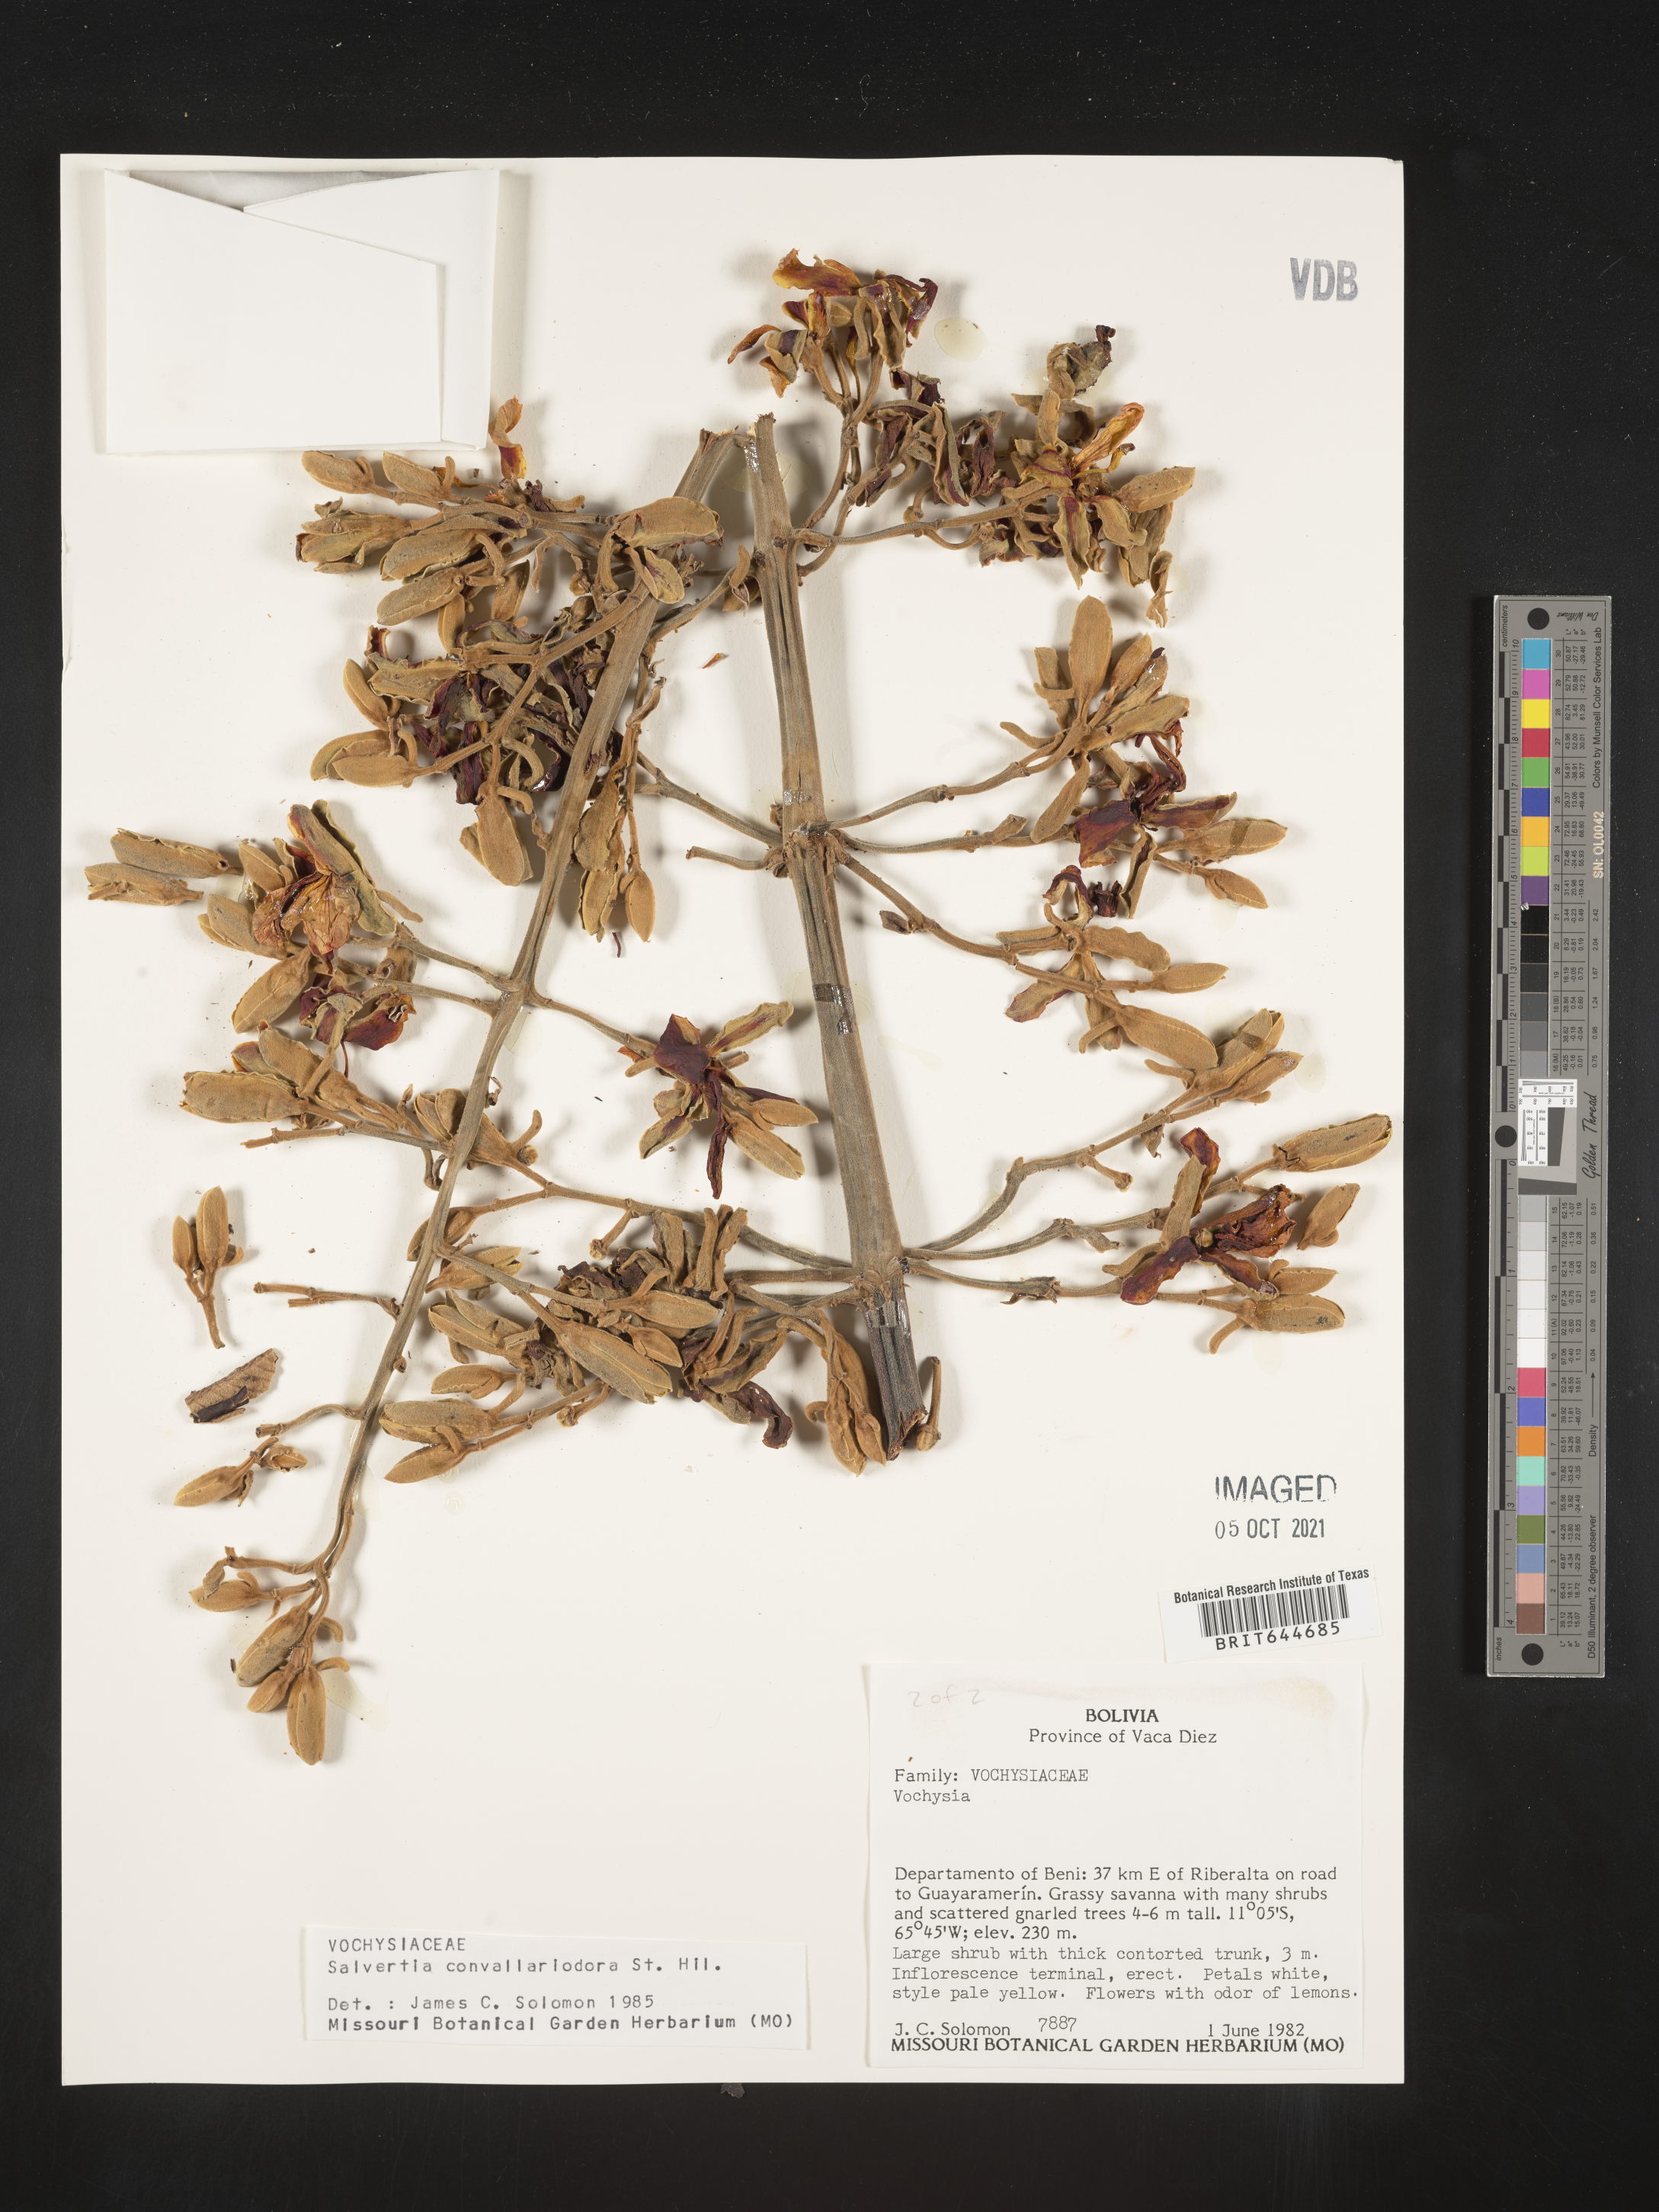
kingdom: Plantae
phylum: Tracheophyta
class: Magnoliopsida
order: Myrtales
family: Vochysiaceae
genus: Salvertia
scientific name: Salvertia
